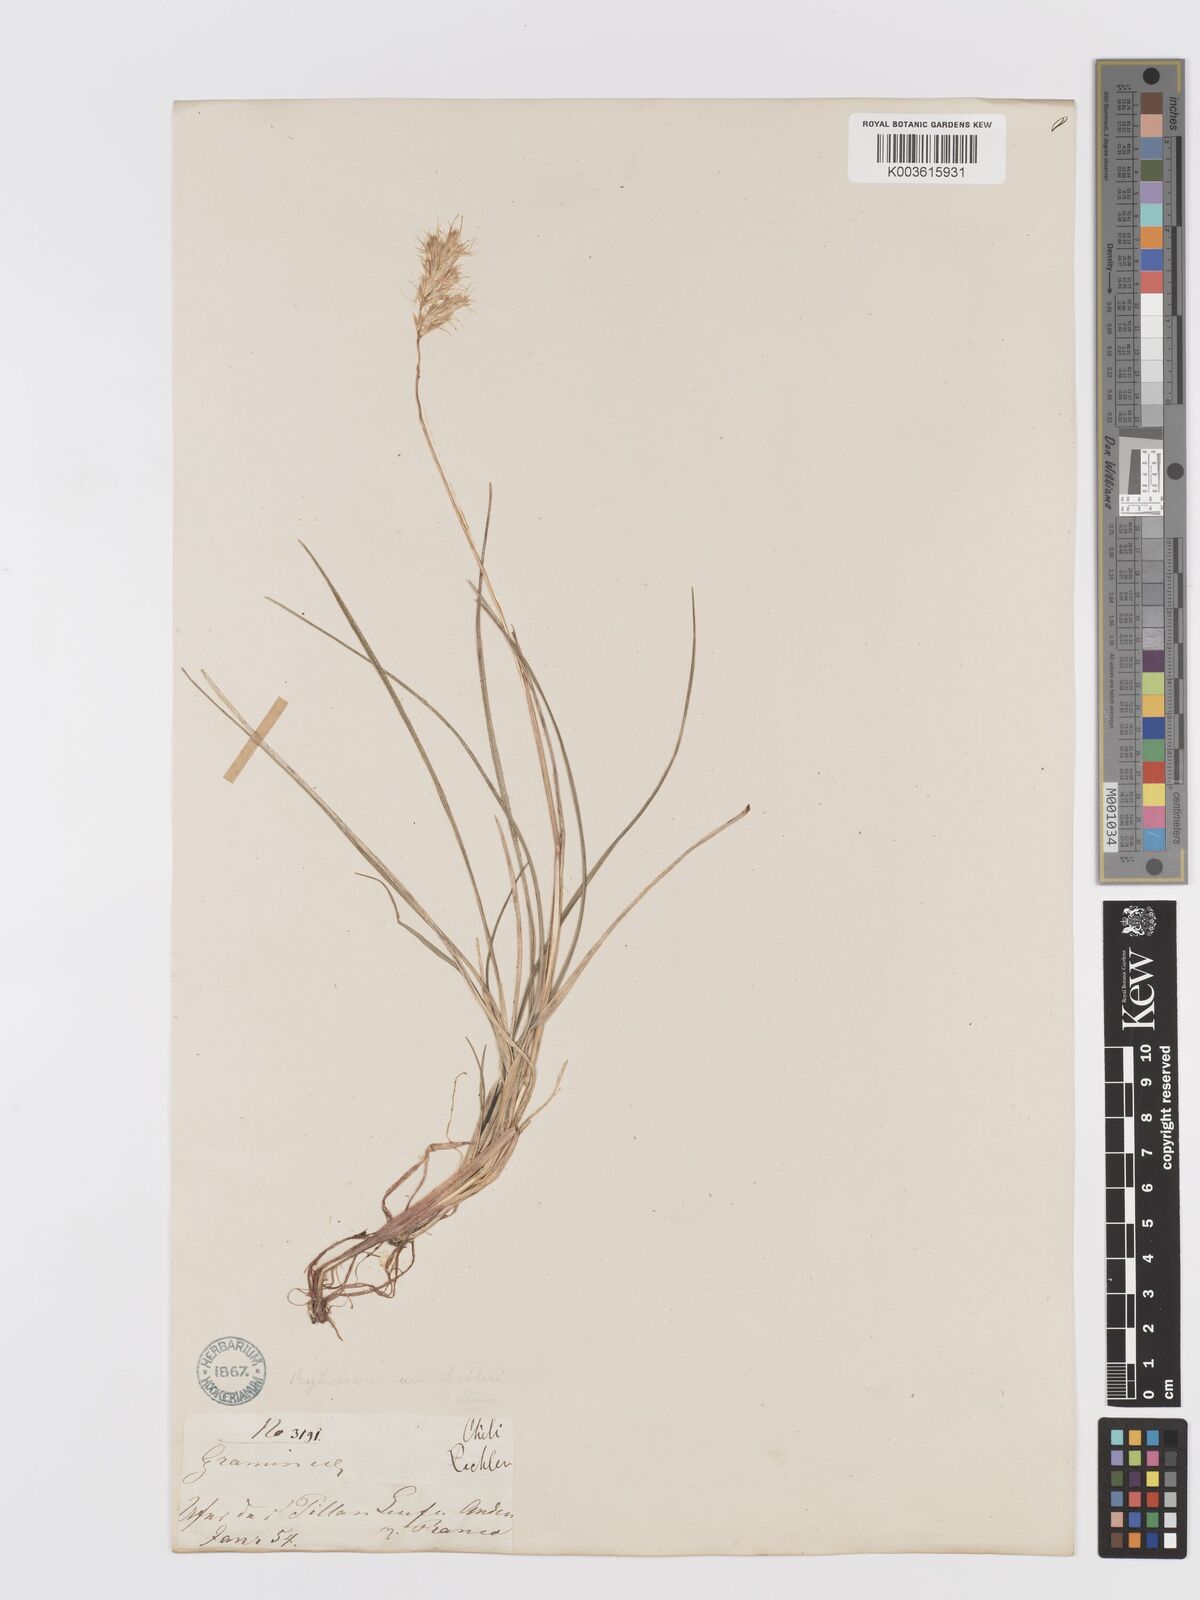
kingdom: Plantae
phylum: Tracheophyta
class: Liliopsida
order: Poales
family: Poaceae
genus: Koeleria
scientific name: Koeleria spicata
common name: Mountain trisetum
